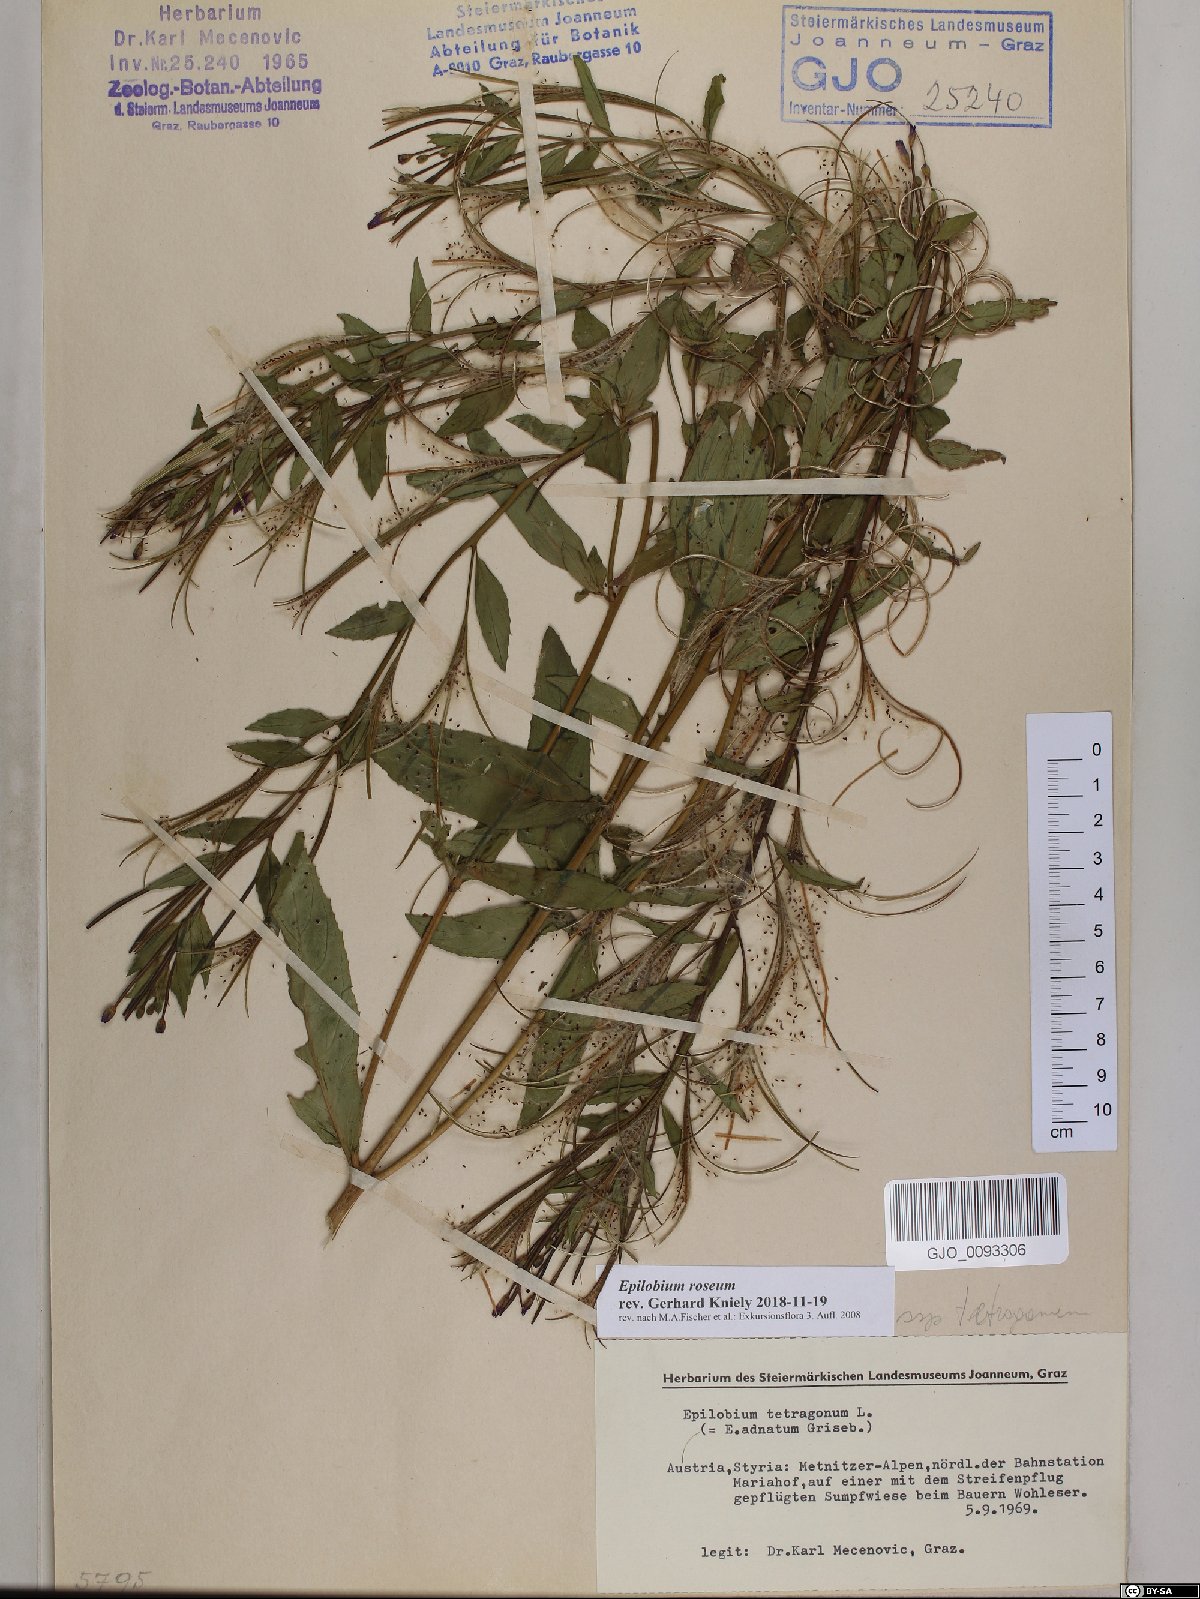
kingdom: Plantae
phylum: Tracheophyta
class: Magnoliopsida
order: Myrtales
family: Onagraceae
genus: Epilobium
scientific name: Epilobium roseum
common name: Pale willowherb
